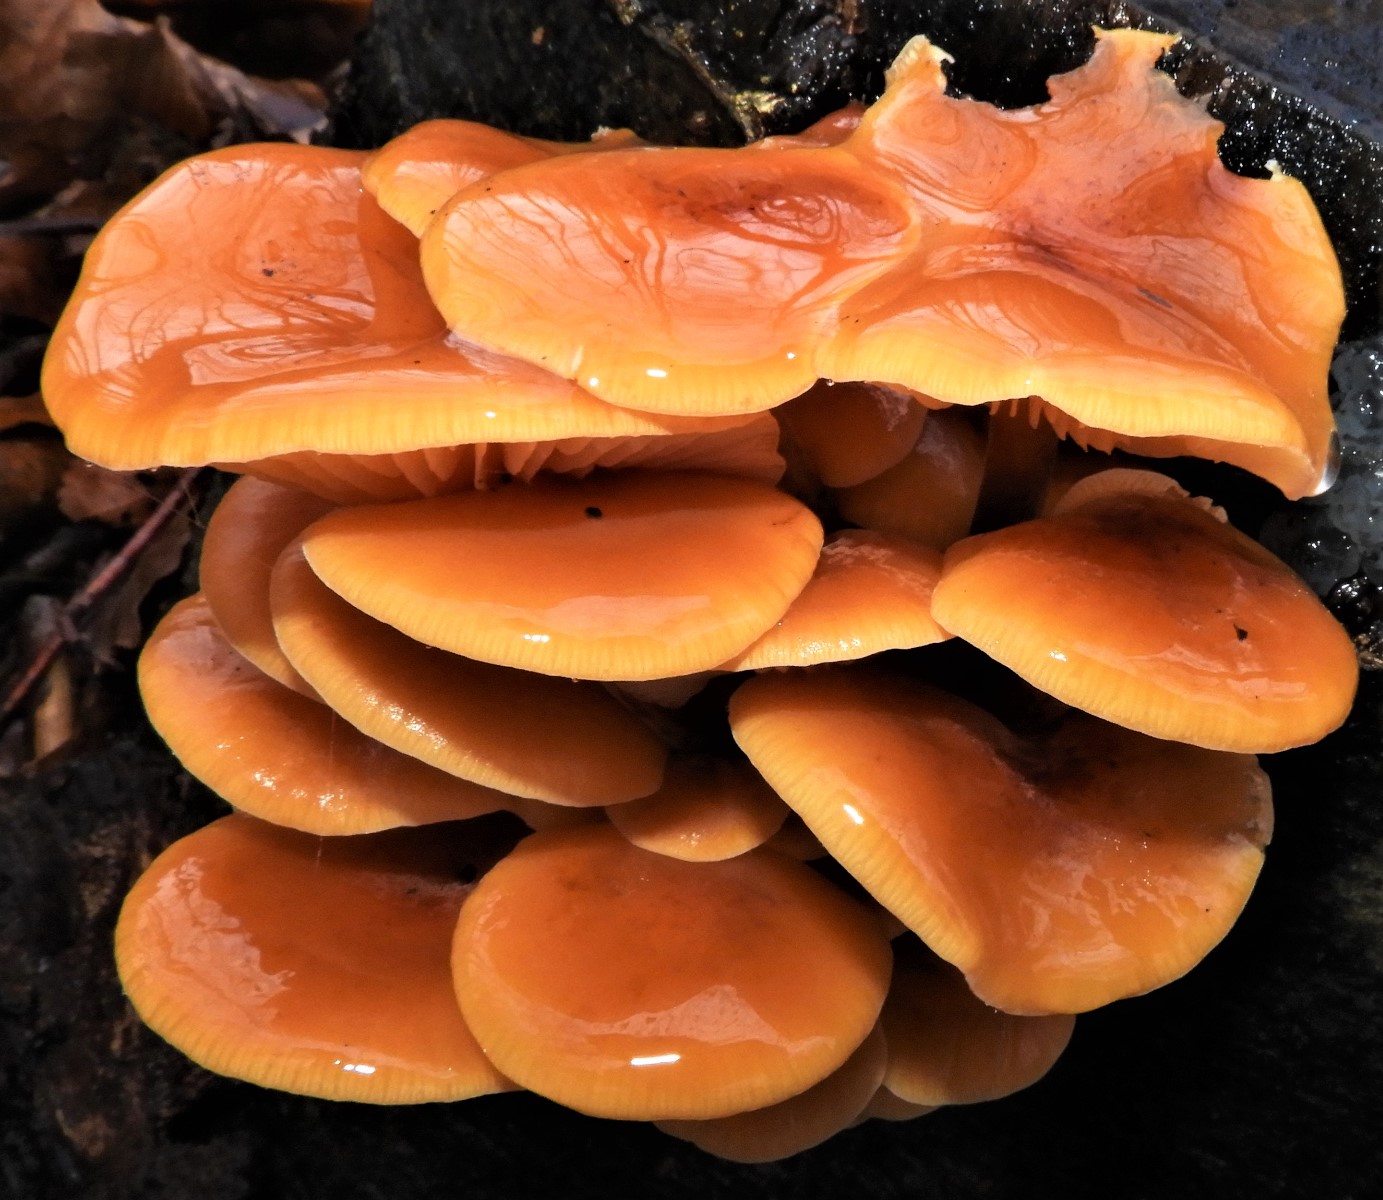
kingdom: Fungi
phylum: Basidiomycota
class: Agaricomycetes
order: Agaricales
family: Physalacriaceae
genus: Flammulina
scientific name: Flammulina velutipes
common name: gul fløjlsfod
